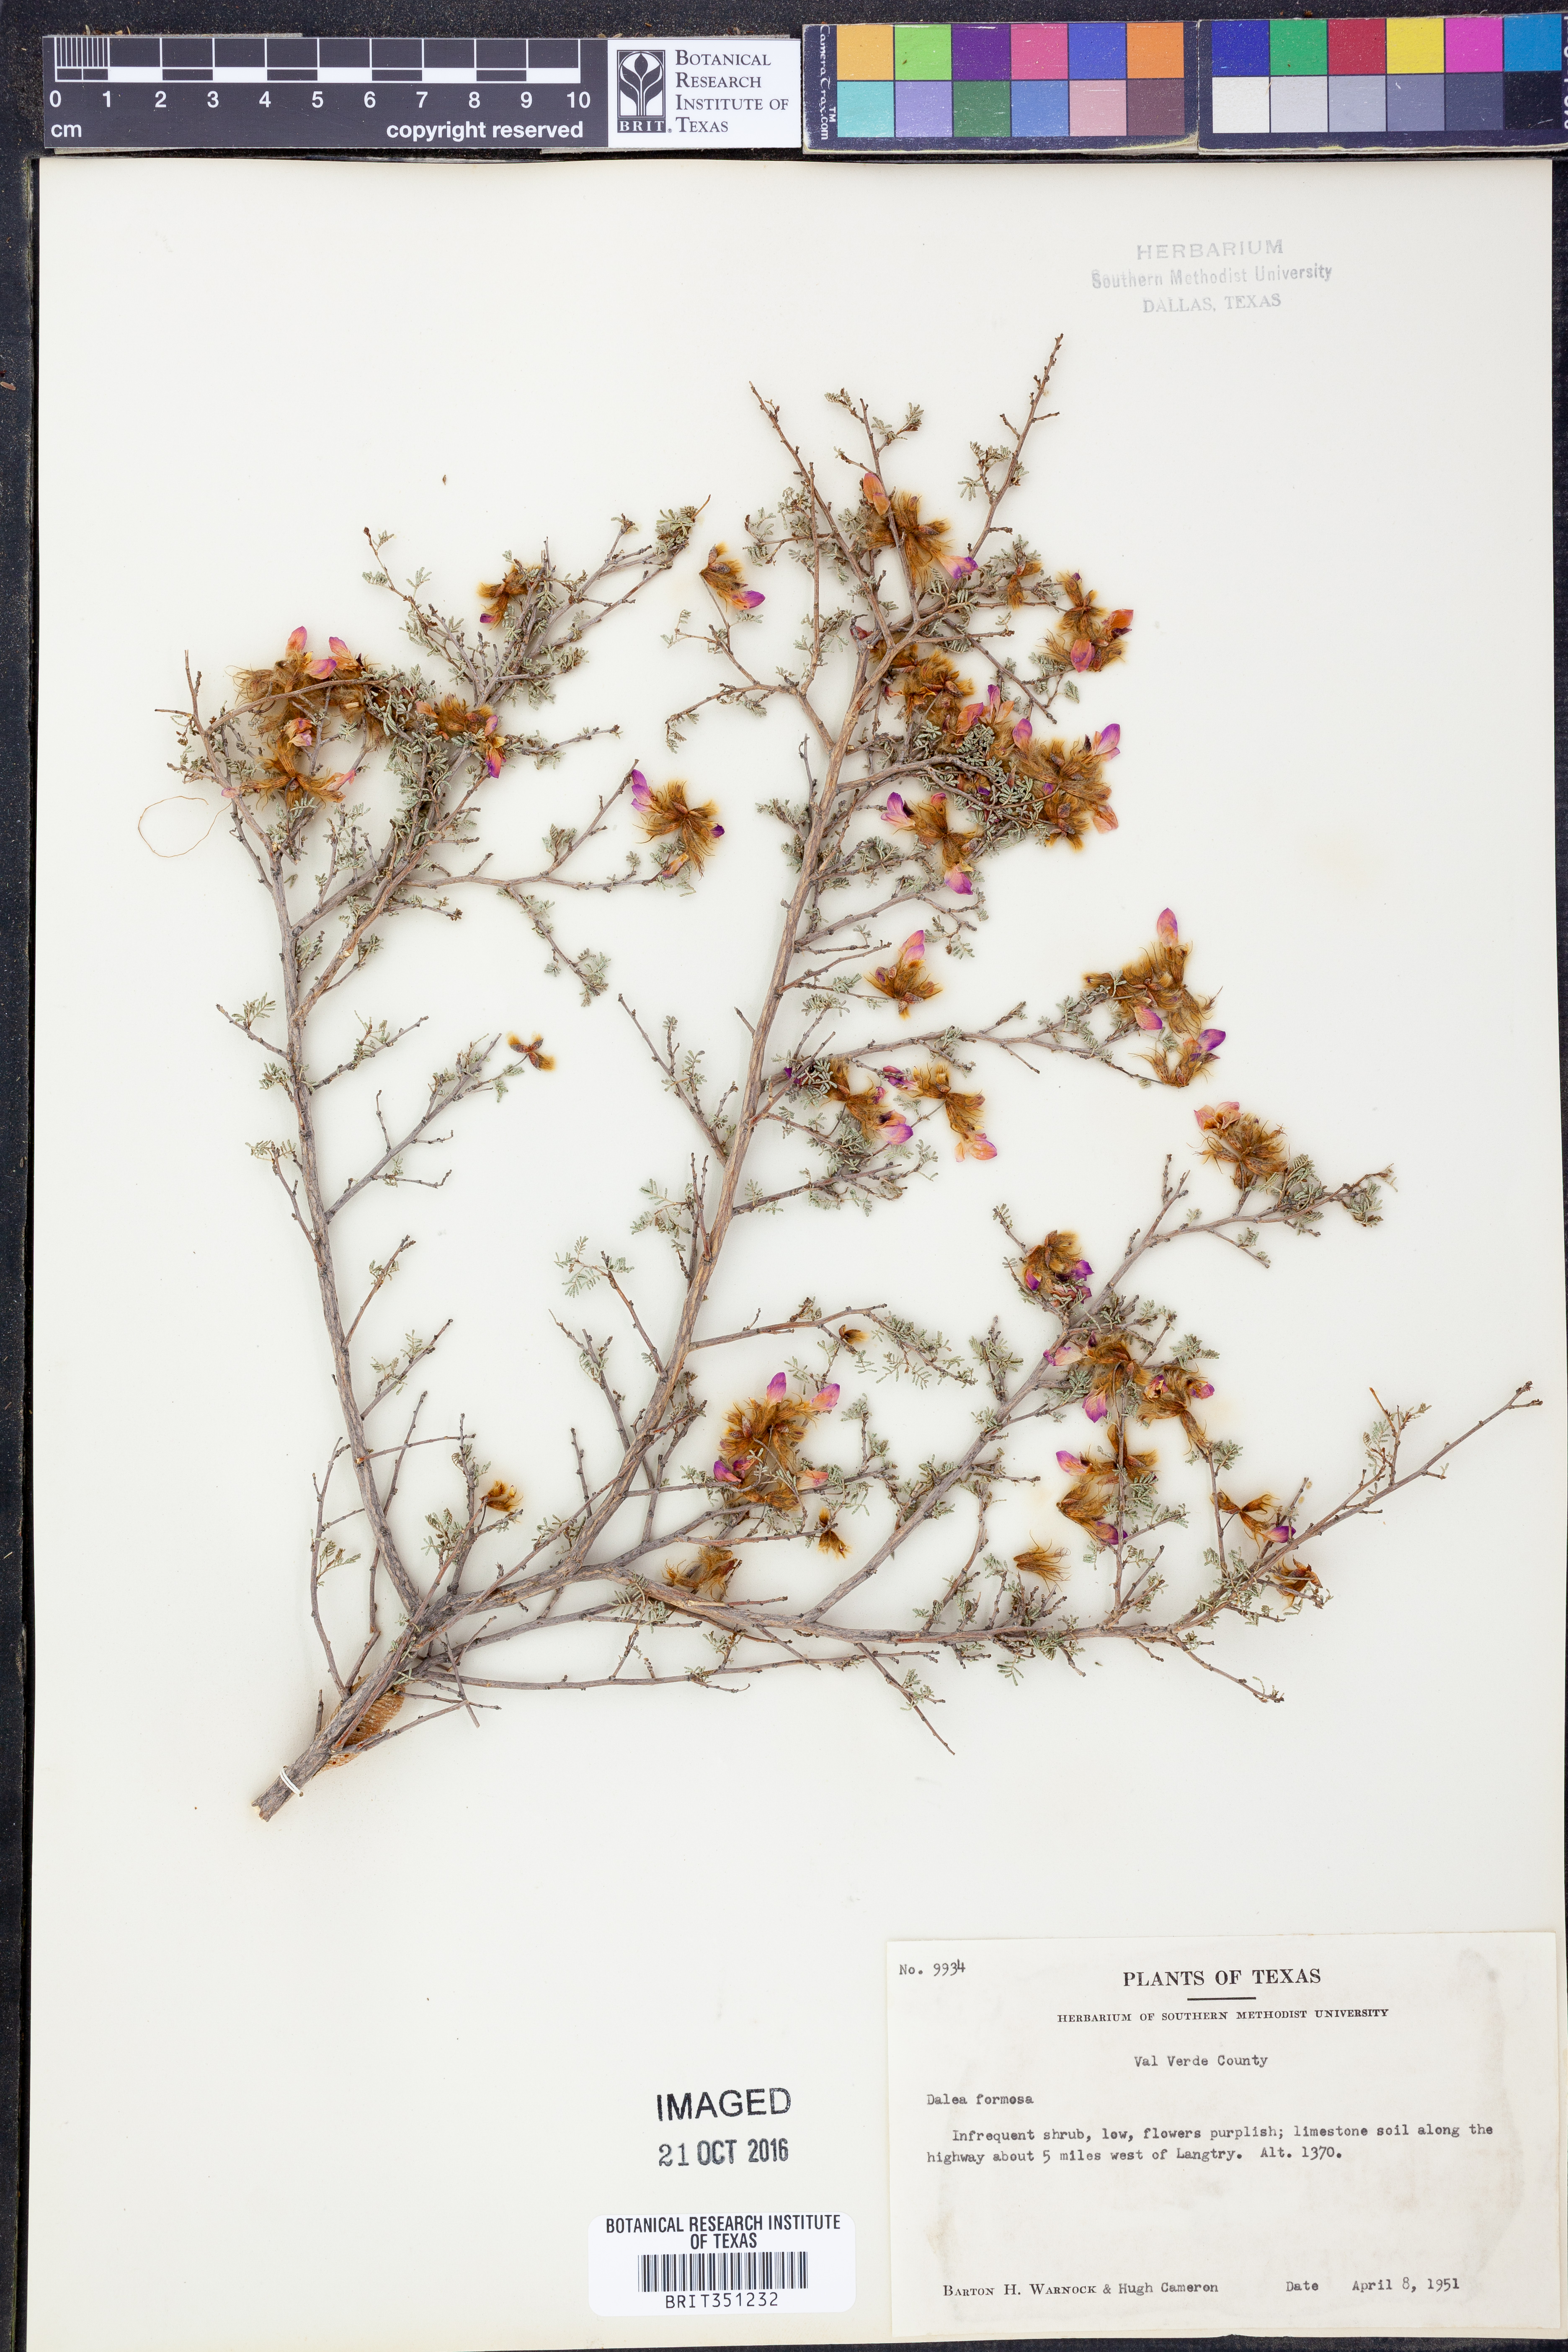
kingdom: Plantae
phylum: Tracheophyta
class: Magnoliopsida
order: Fabales
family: Fabaceae
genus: Dalea
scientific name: Dalea formosa
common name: Feather-plume dalea
